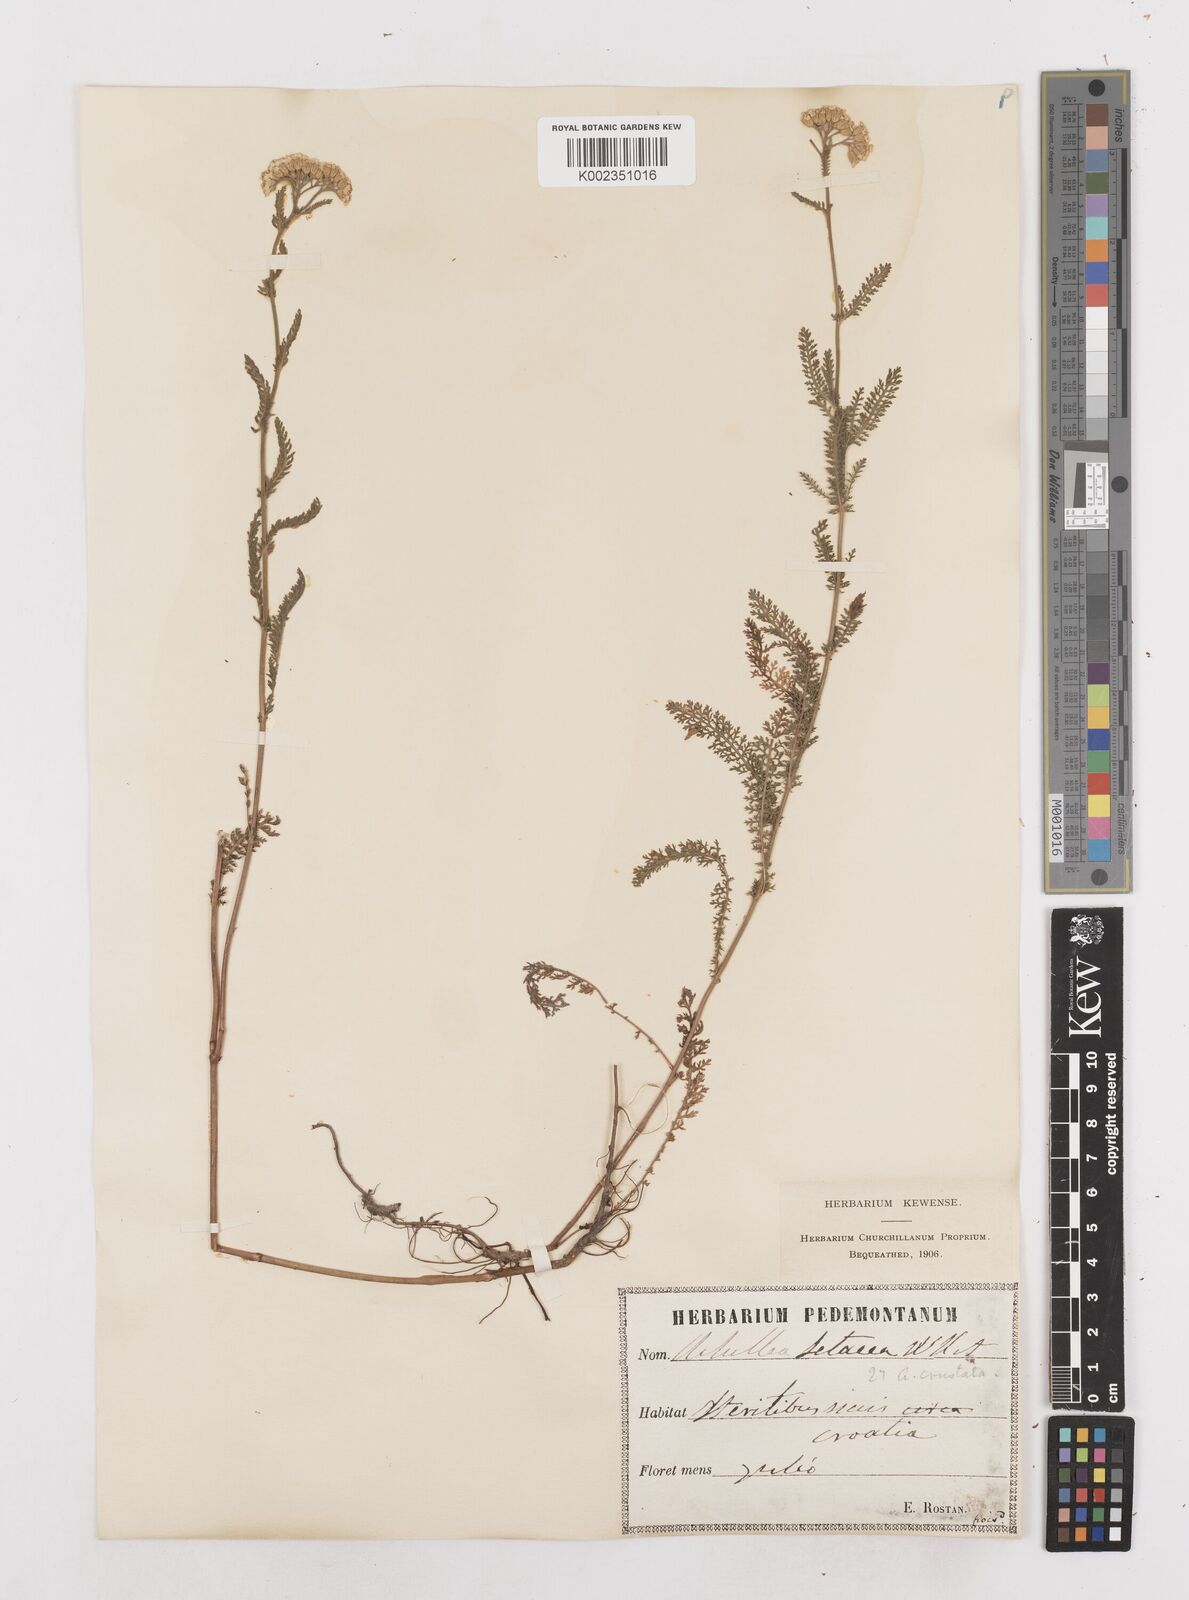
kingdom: Plantae
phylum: Tracheophyta
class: Magnoliopsida
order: Asterales
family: Asteraceae
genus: Achillea
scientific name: Achillea millefolium
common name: Yarrow
